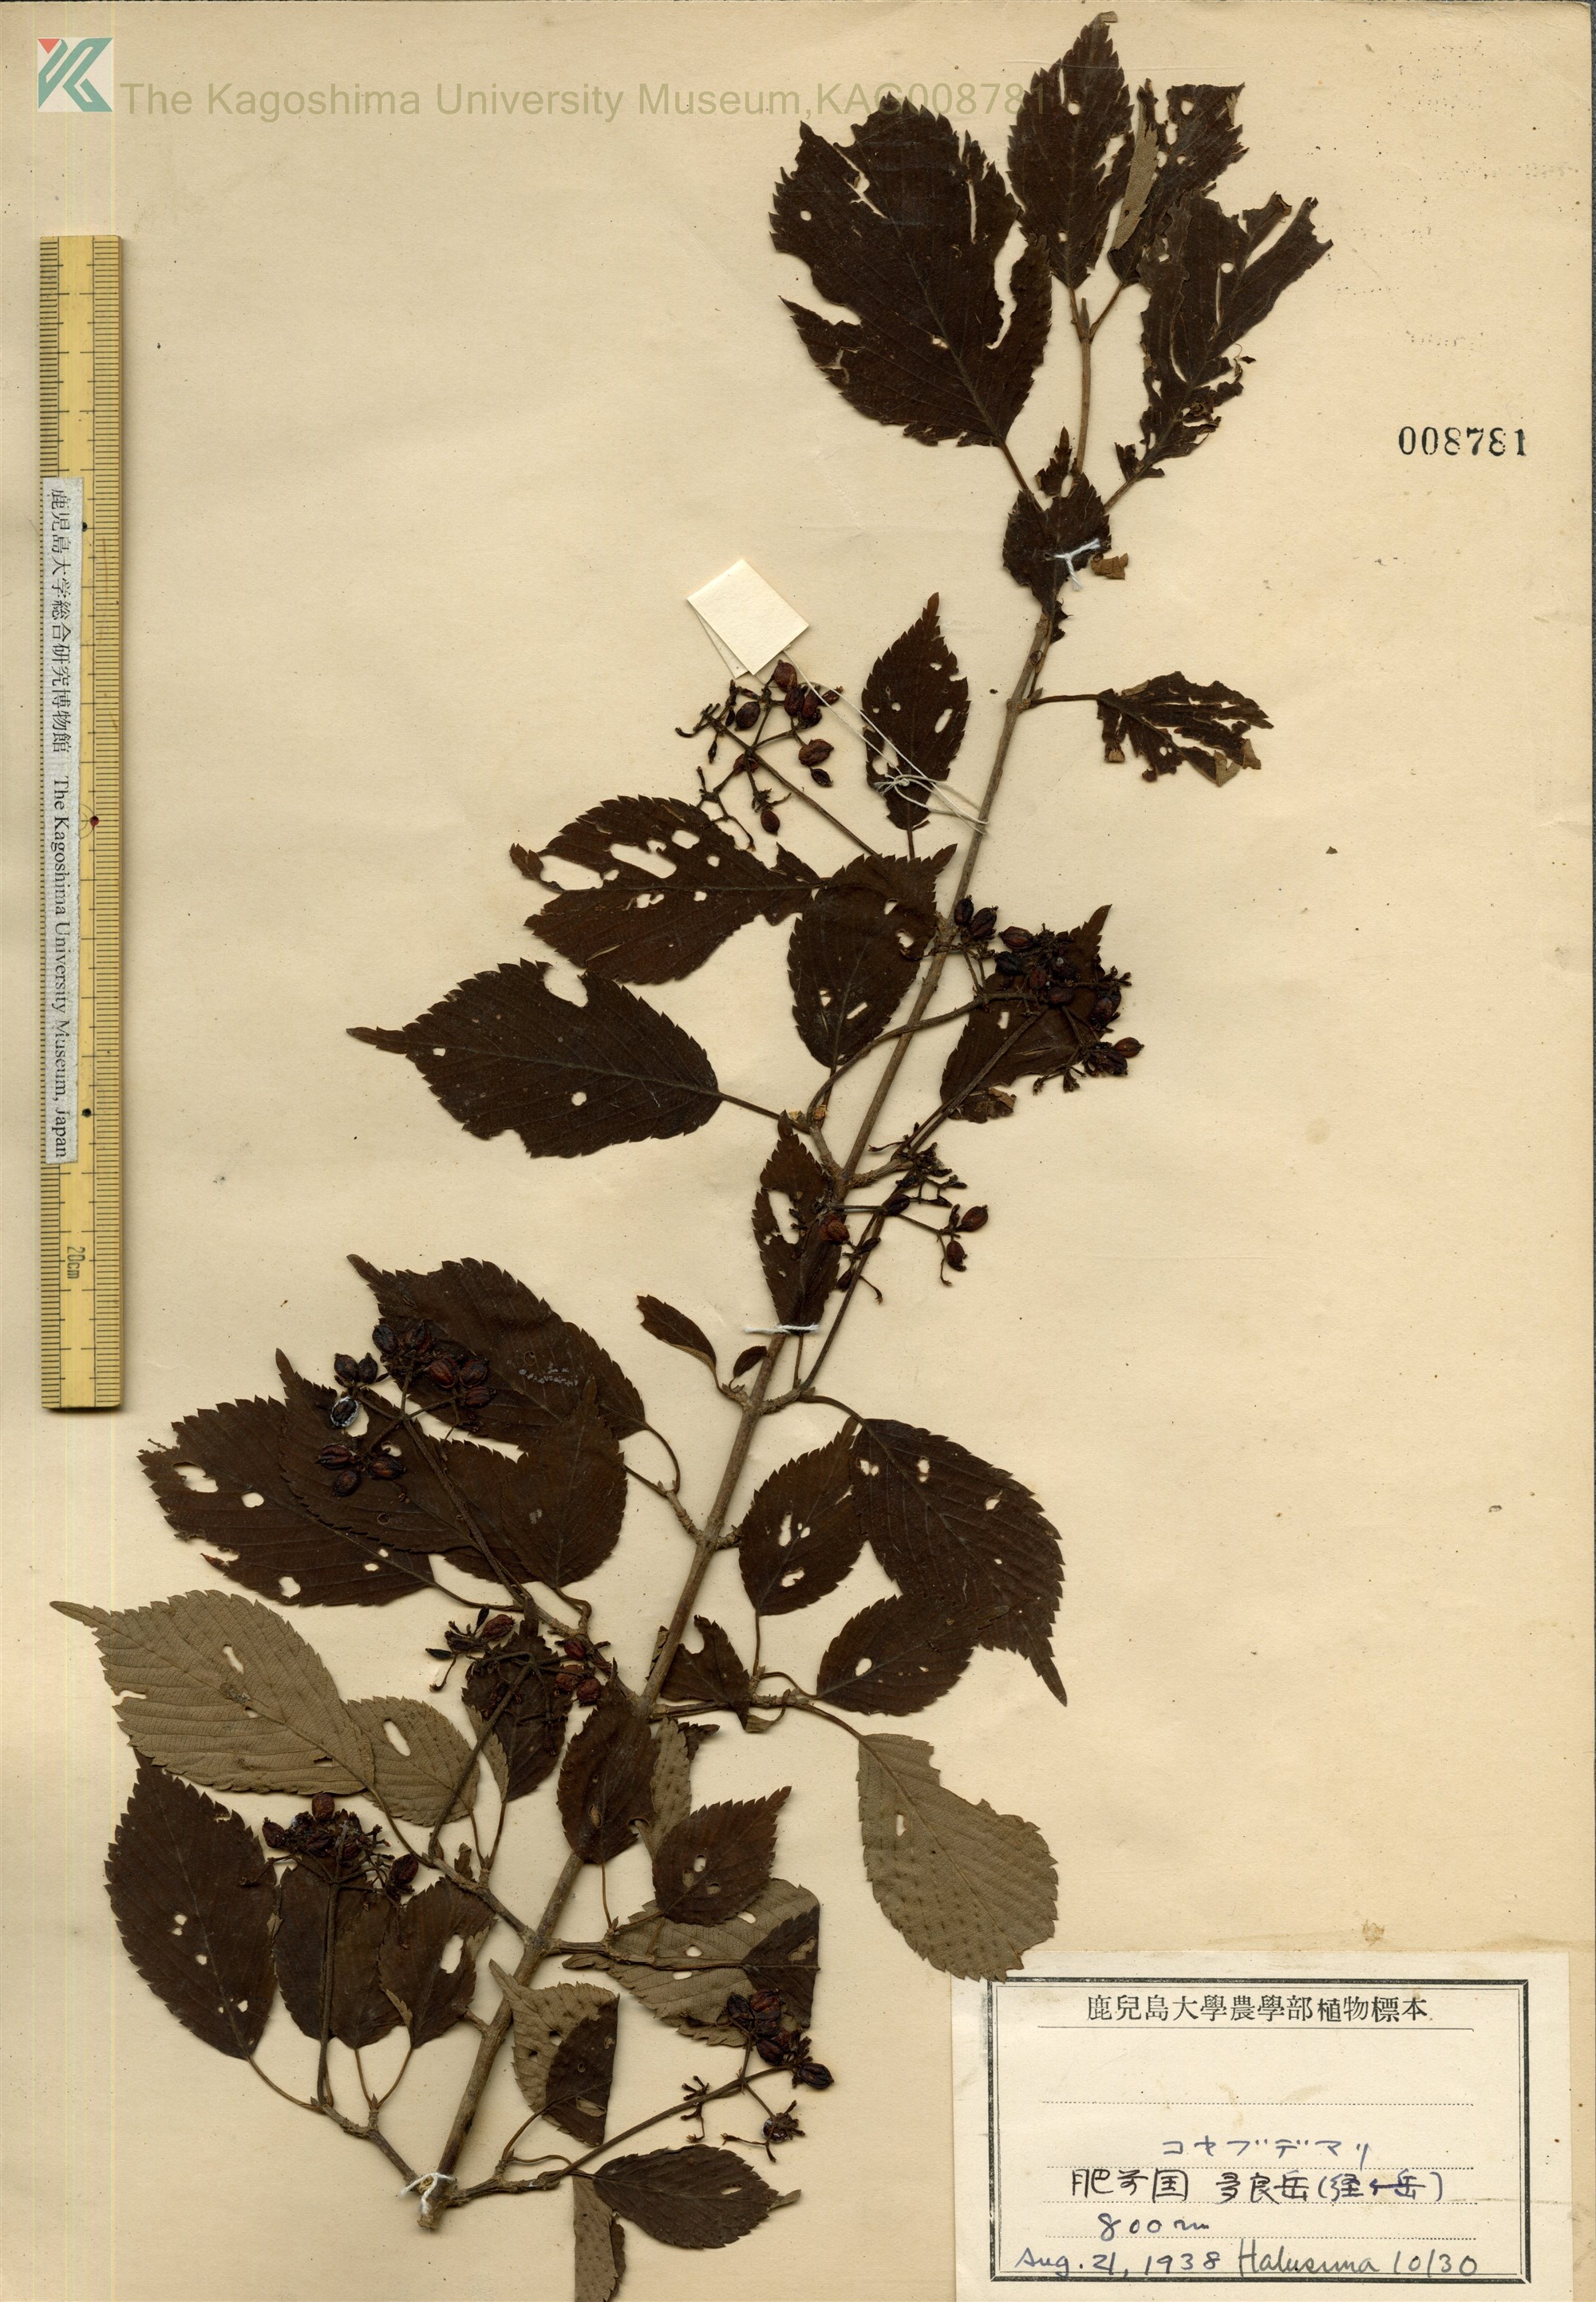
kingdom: Plantae
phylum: Tracheophyta
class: Magnoliopsida
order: Dipsacales
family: Viburnaceae
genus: Viburnum
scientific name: Viburnum plicatum
